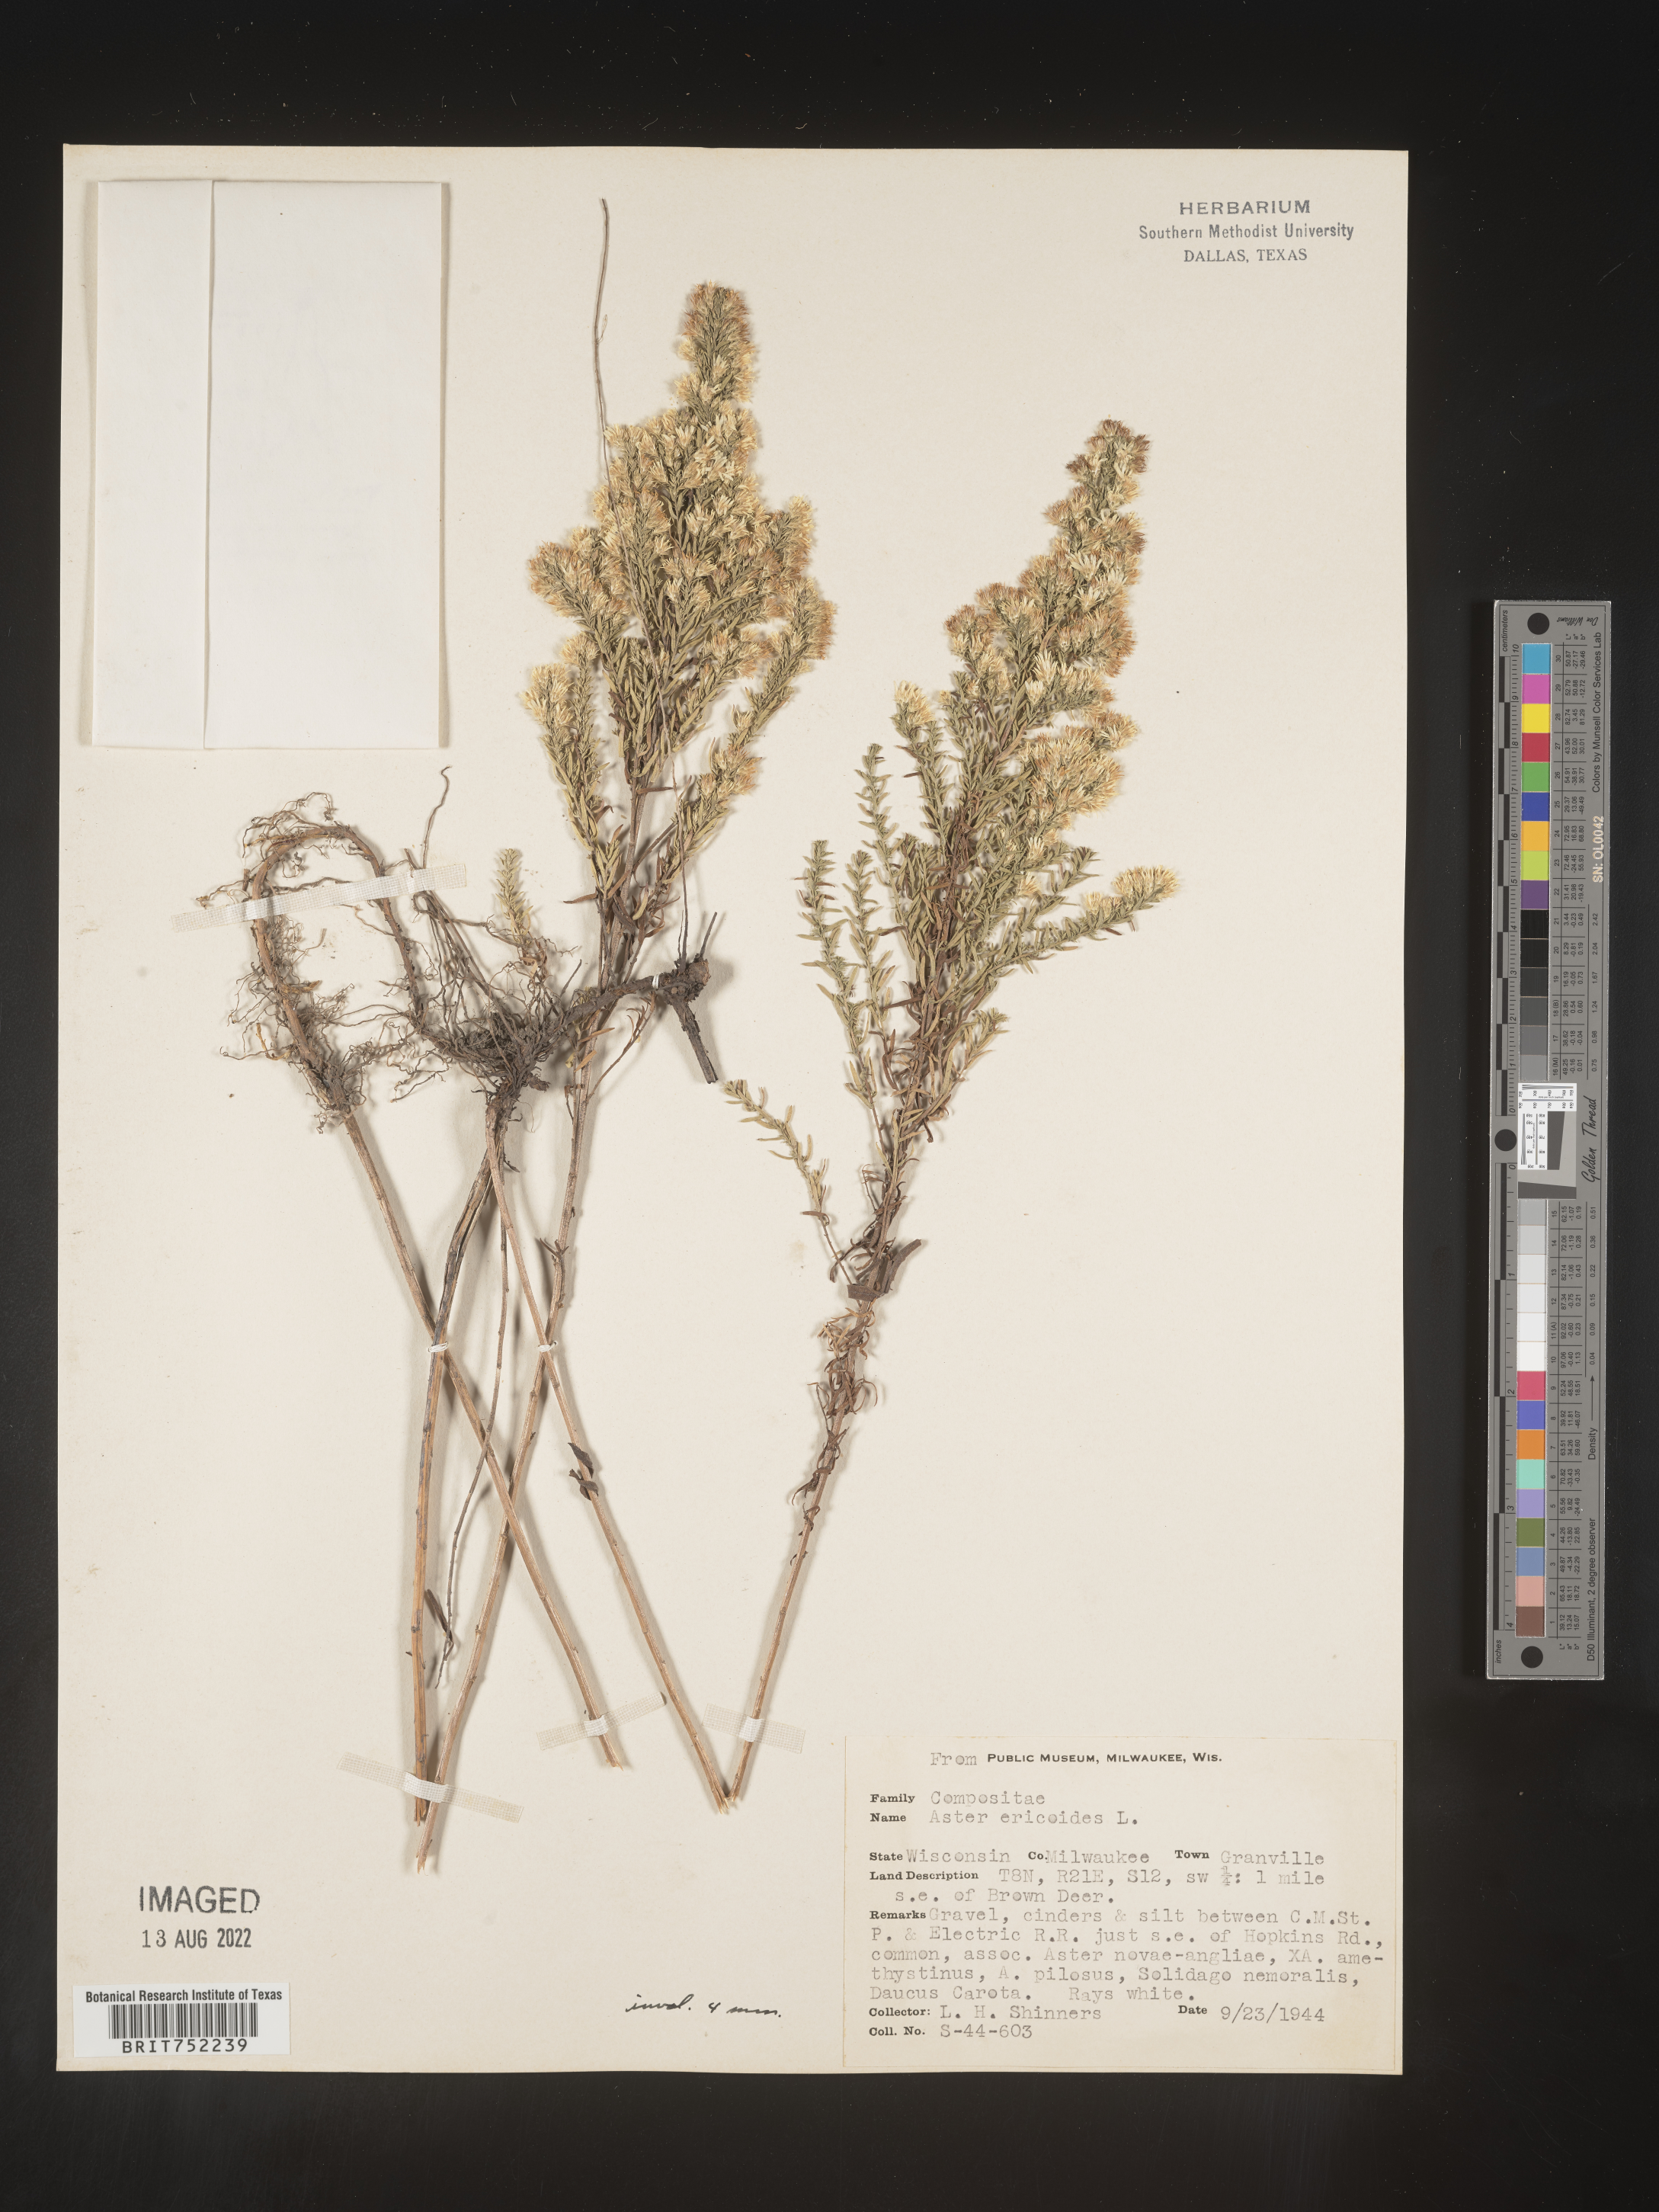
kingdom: Plantae
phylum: Tracheophyta
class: Magnoliopsida
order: Asterales
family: Asteraceae
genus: Symphyotrichum
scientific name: Symphyotrichum ericoides
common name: Heath aster
